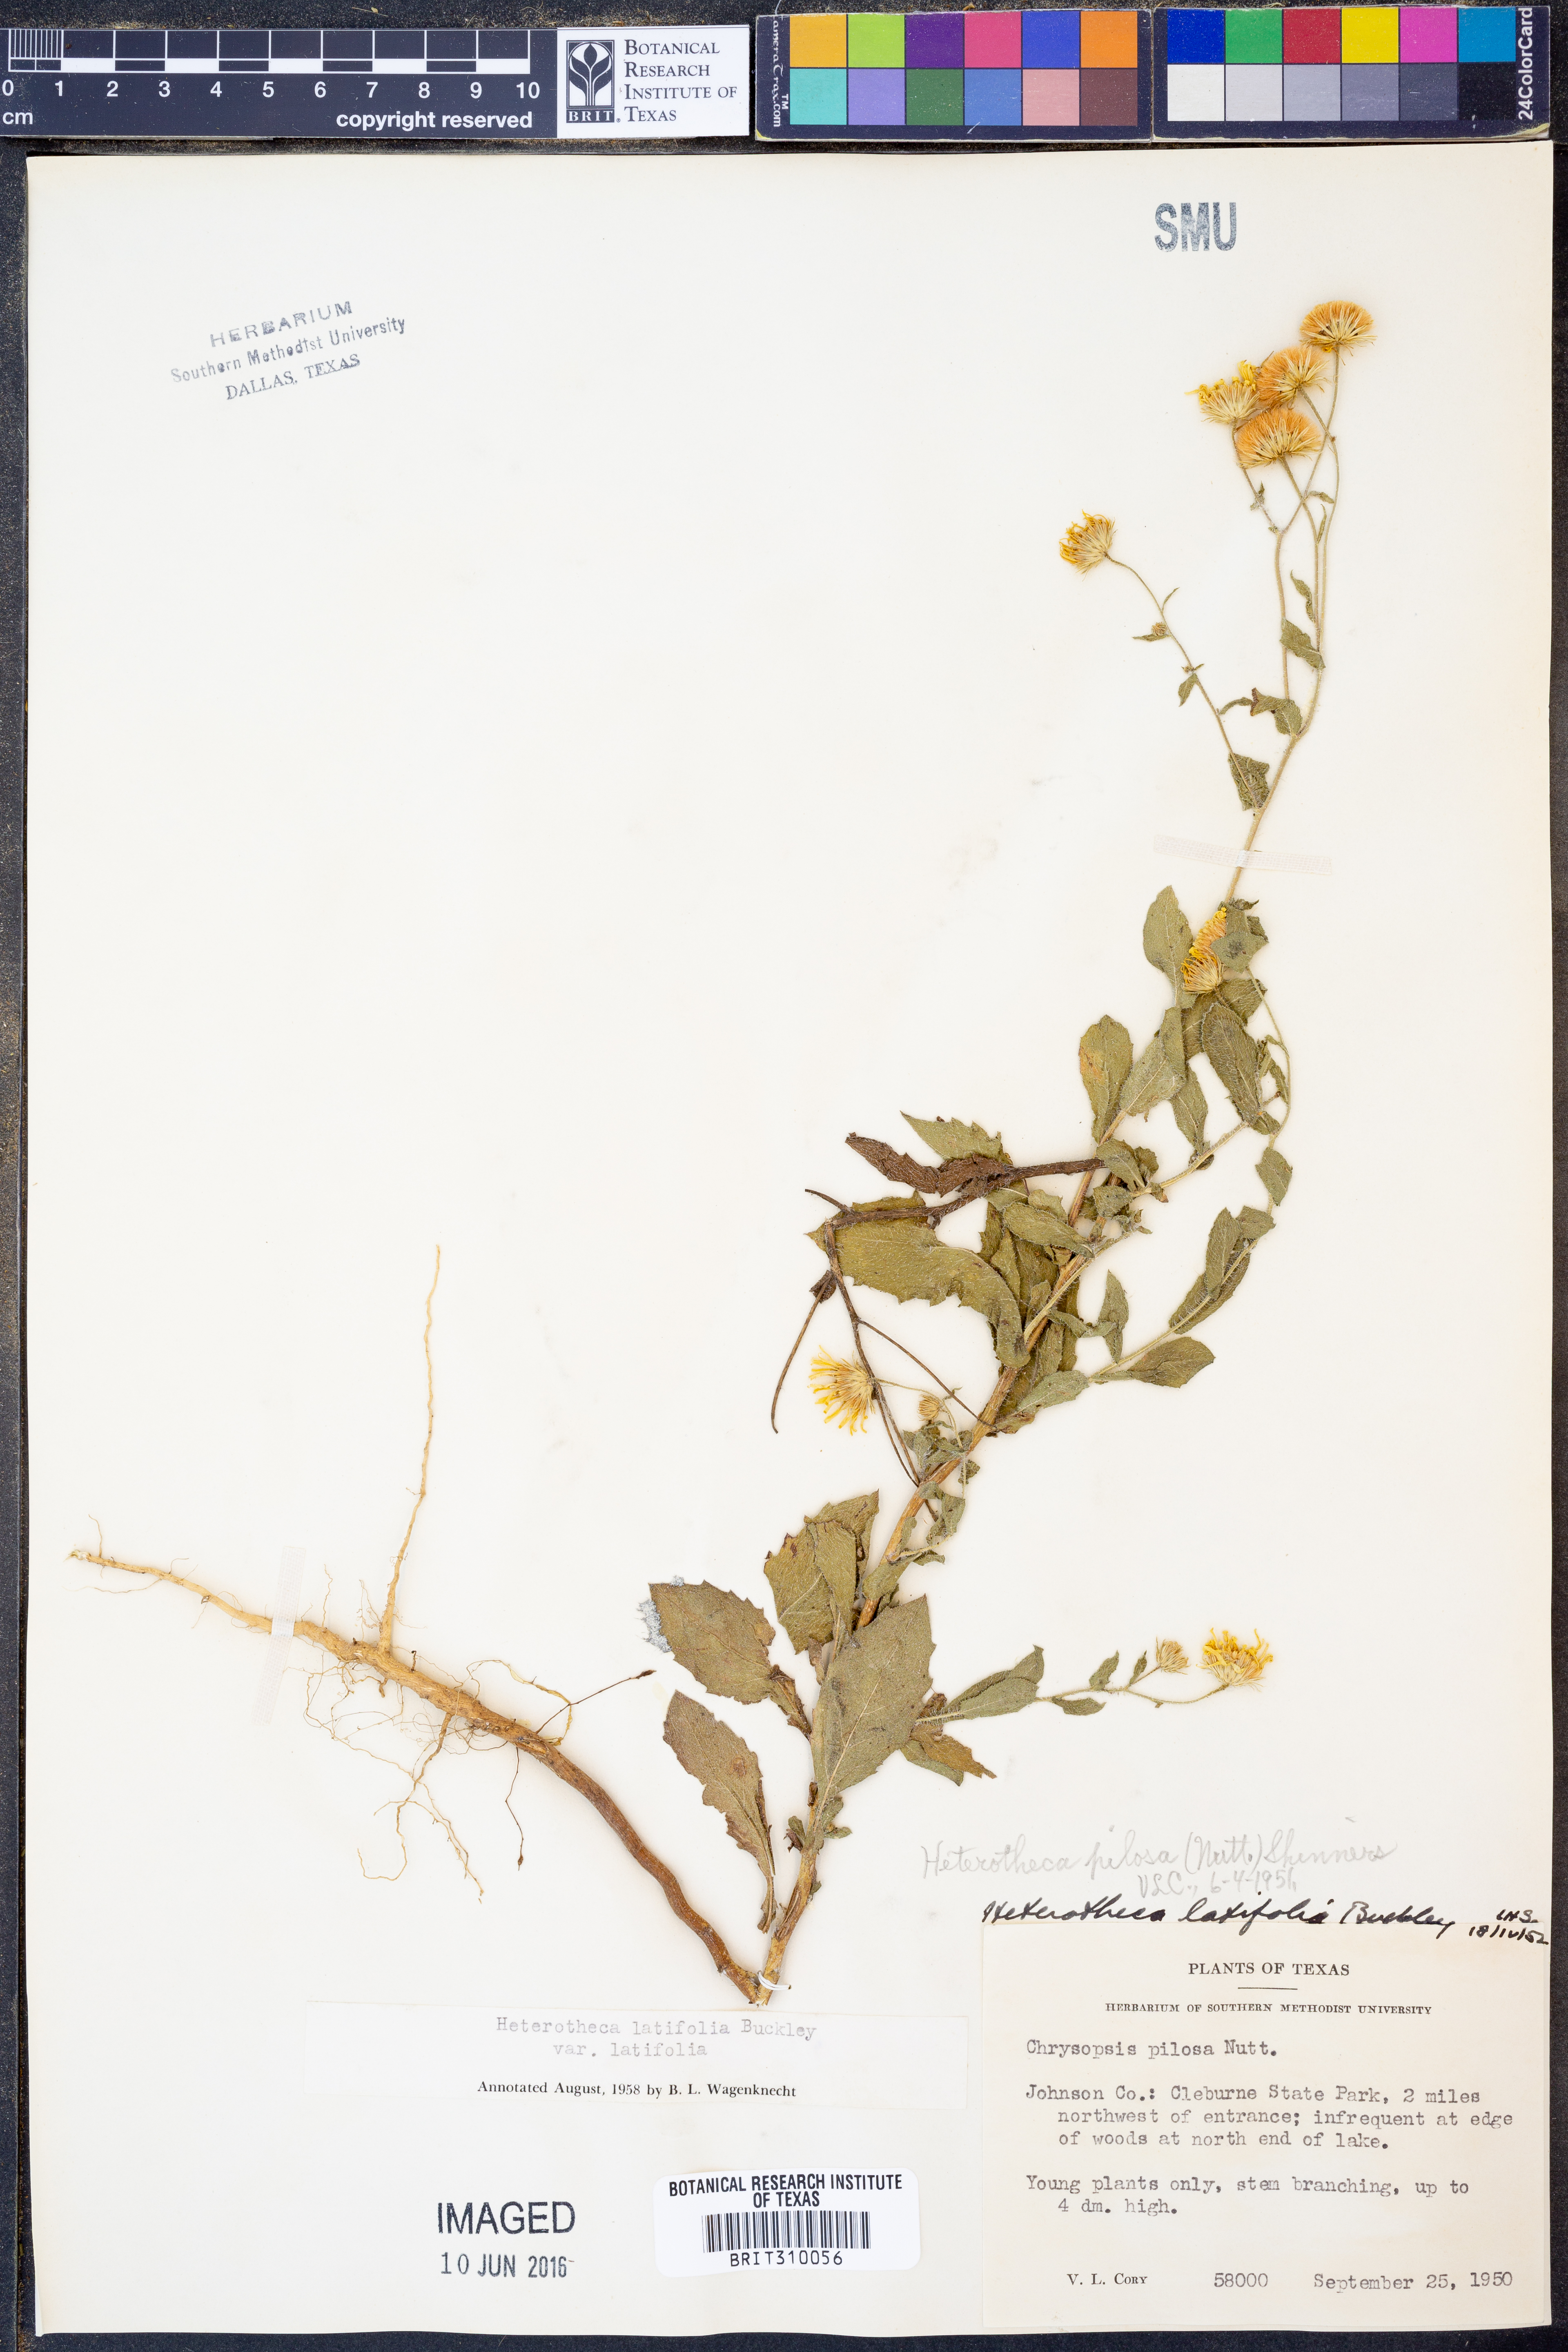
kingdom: Plantae
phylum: Tracheophyta
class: Magnoliopsida
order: Asterales
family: Asteraceae
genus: Heterotheca
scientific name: Heterotheca subaxillaris
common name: Camphorweed
